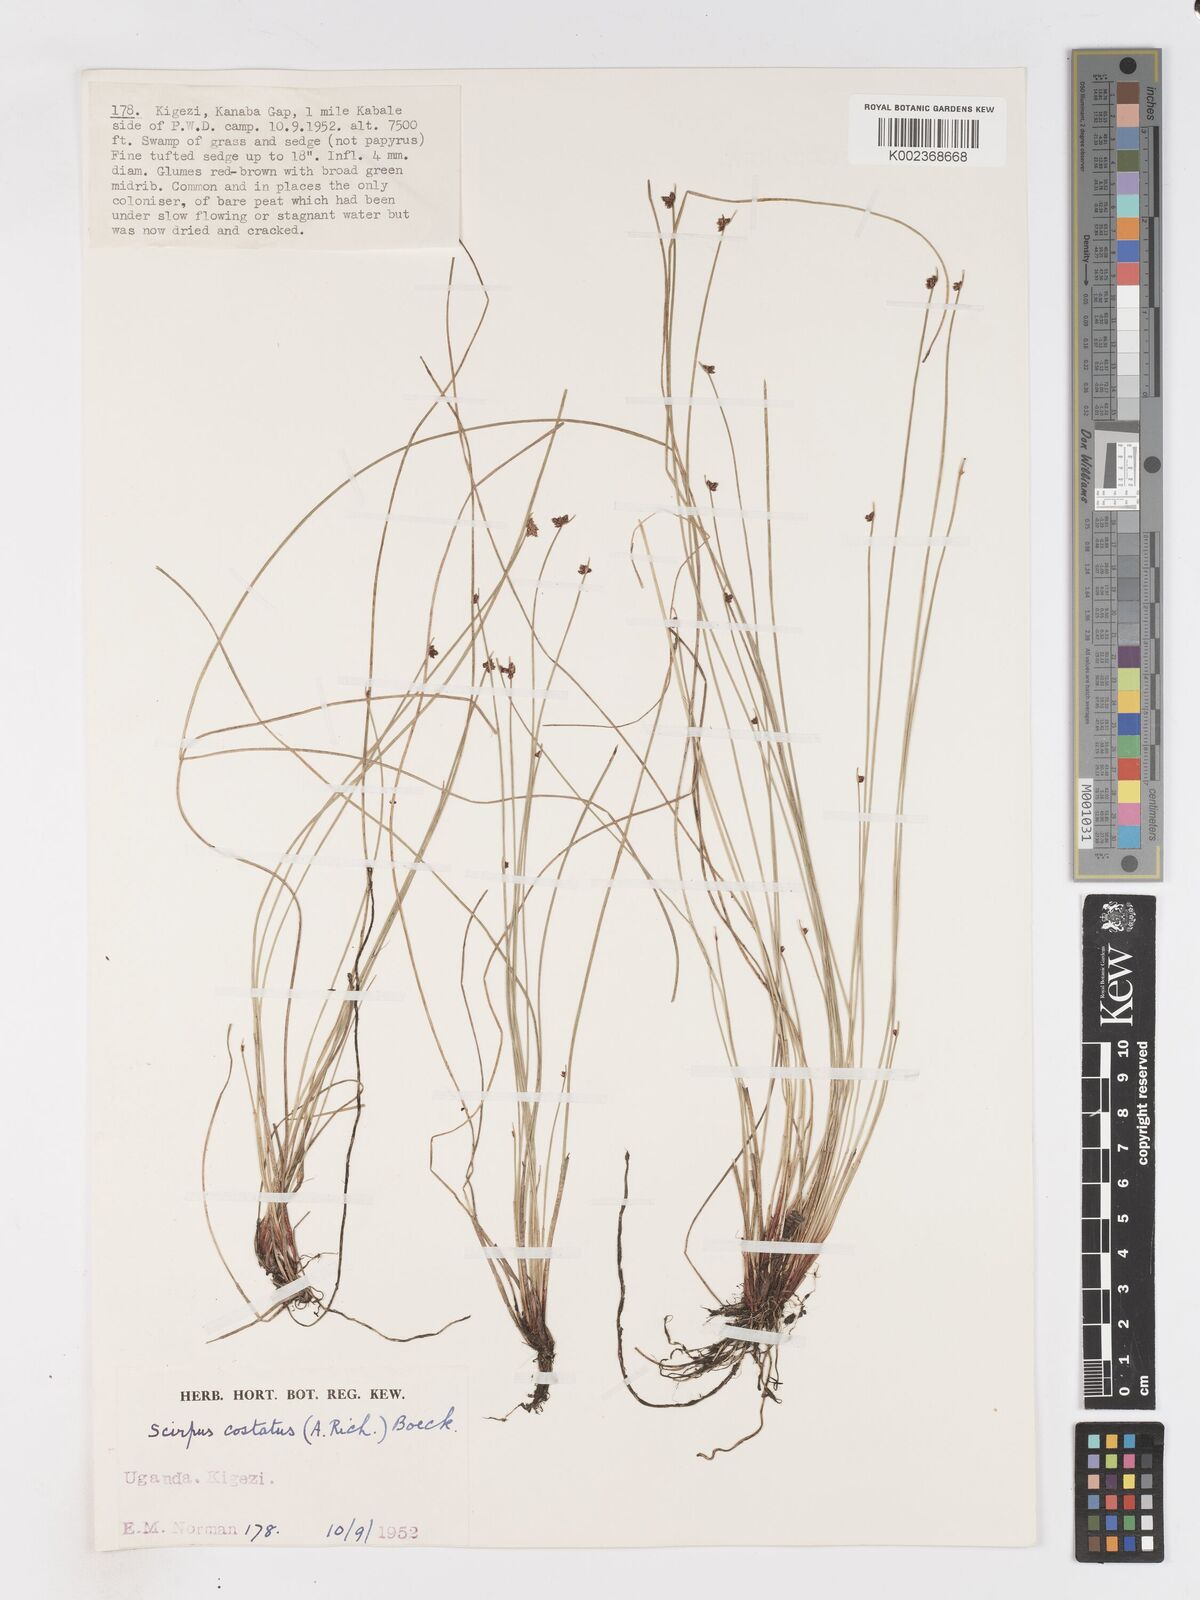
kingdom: Plantae
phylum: Tracheophyta
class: Liliopsida
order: Poales
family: Cyperaceae
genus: Isolepis
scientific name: Isolepis costata
